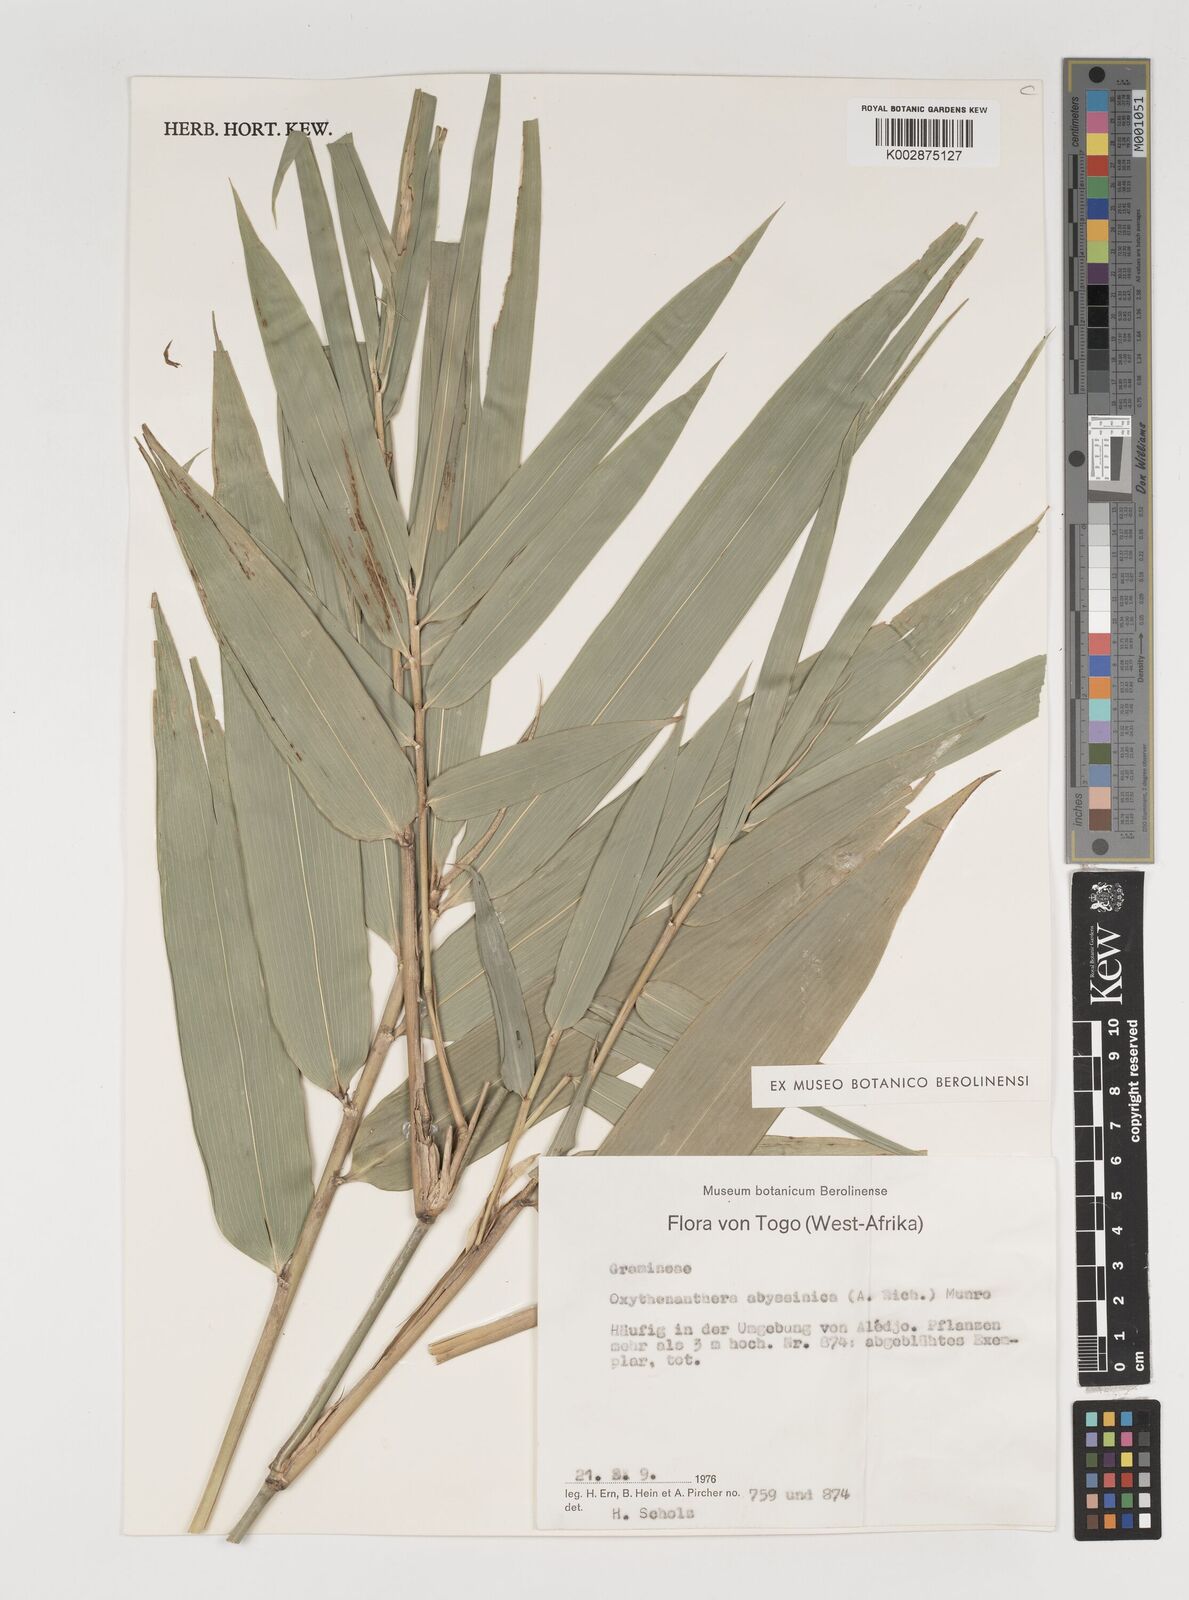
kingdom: Plantae
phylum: Tracheophyta
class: Liliopsida
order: Poales
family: Poaceae
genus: Oxytenanthera
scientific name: Oxytenanthera abyssinica
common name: Wine bamboo
